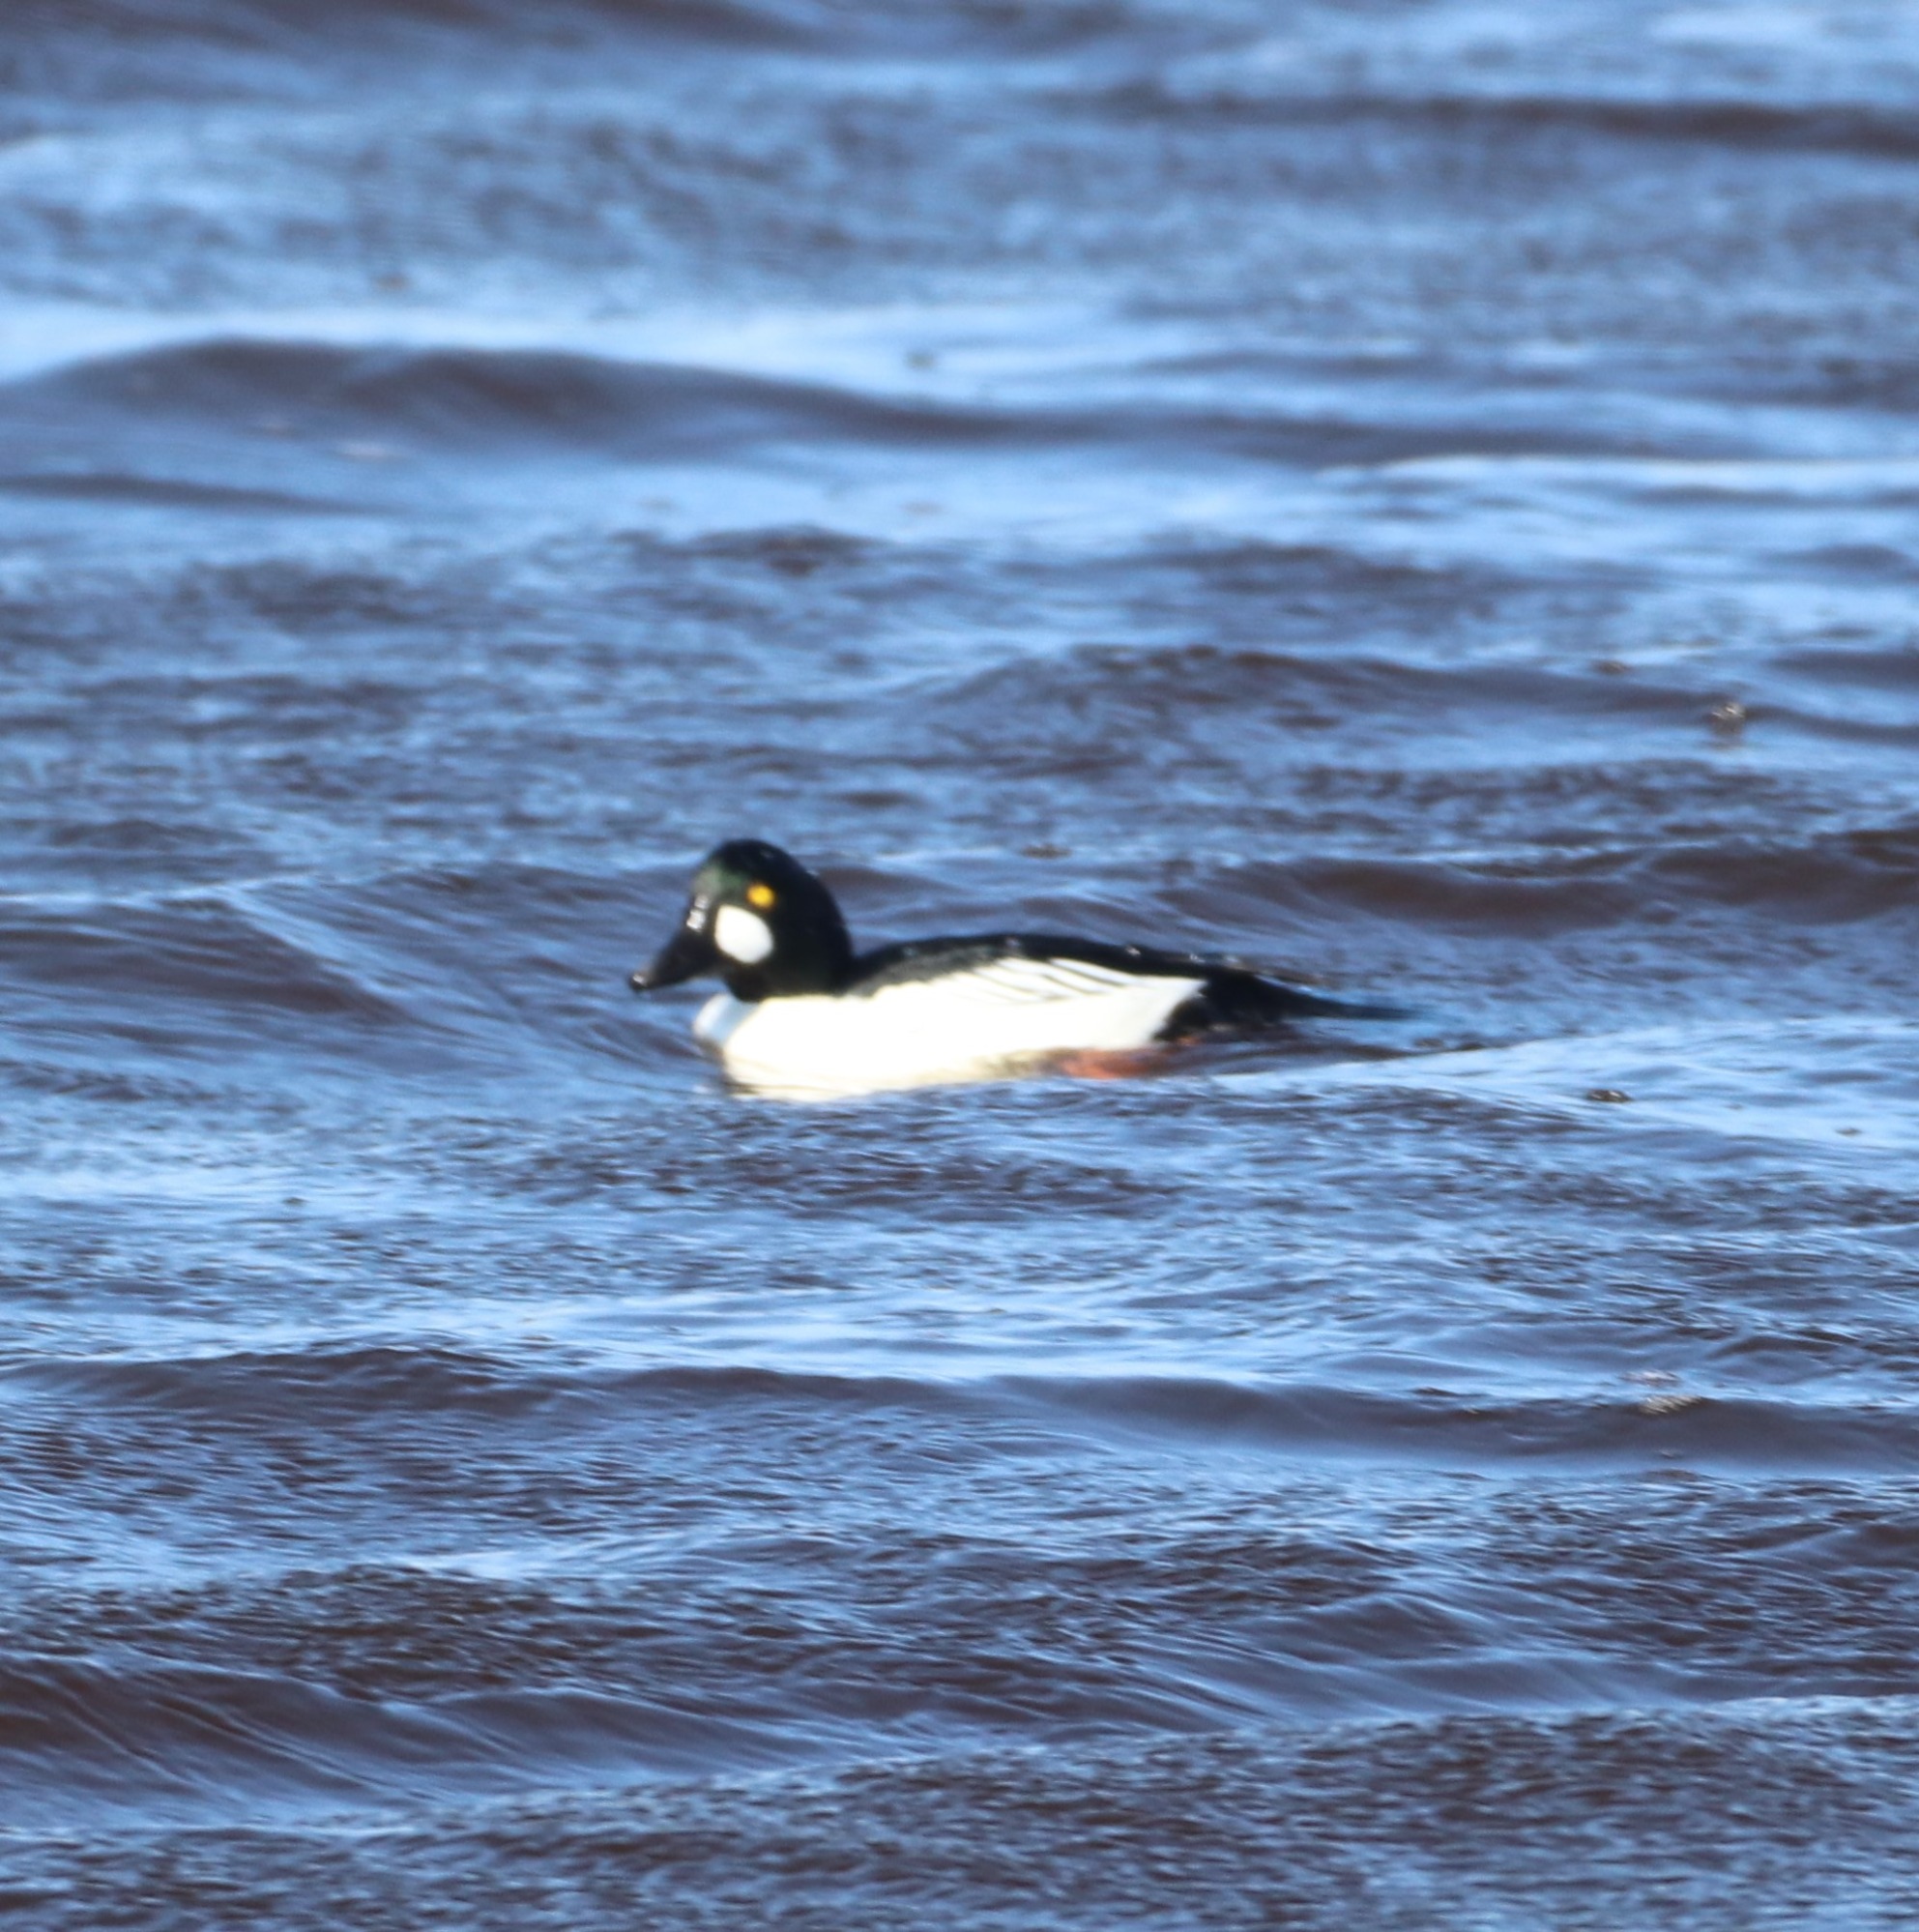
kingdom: Animalia
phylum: Chordata
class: Aves
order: Anseriformes
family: Anatidae
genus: Bucephala
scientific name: Bucephala clangula
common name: Hvinand
